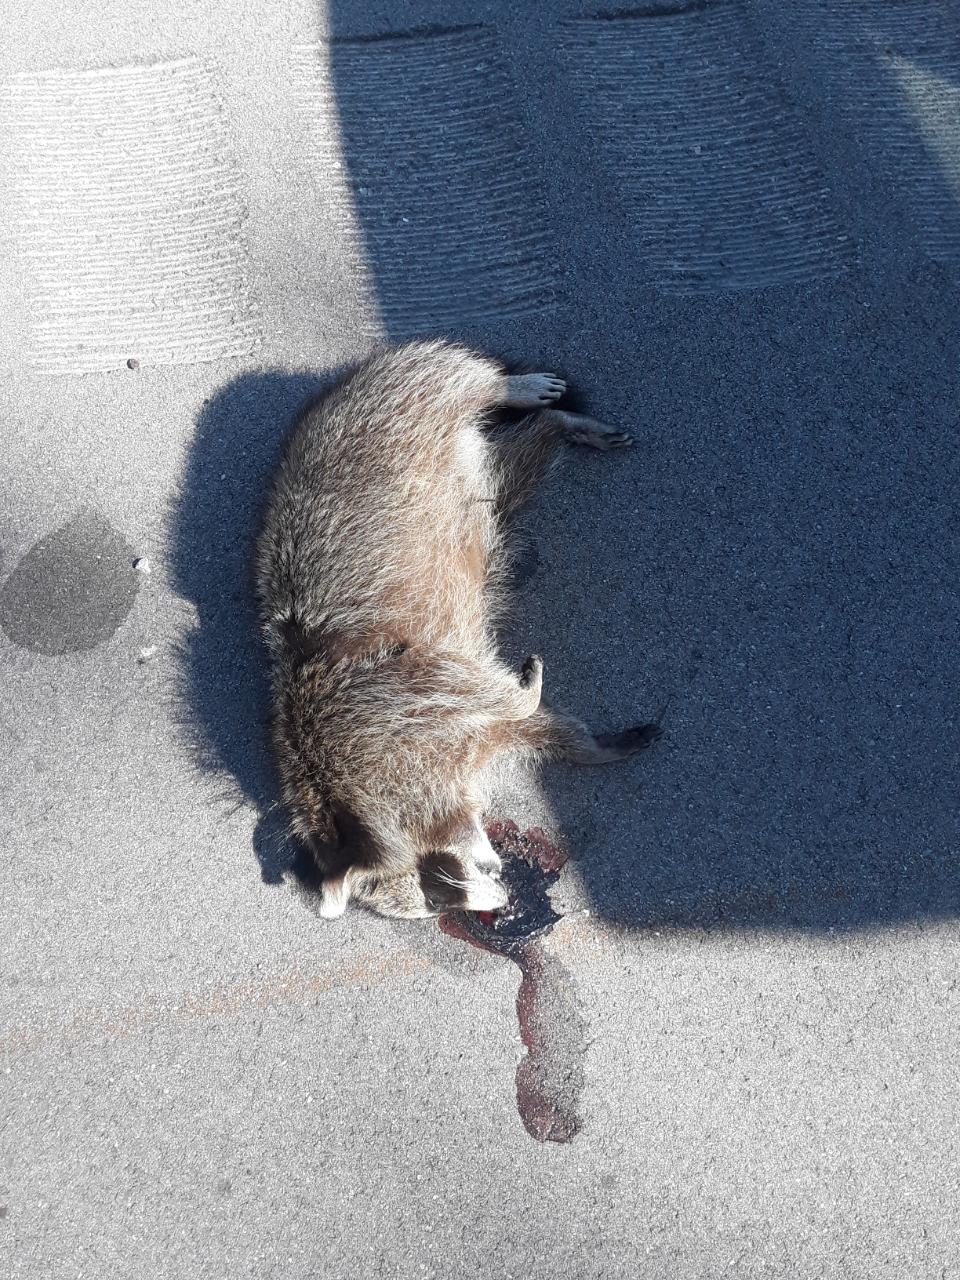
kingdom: Animalia
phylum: Chordata
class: Mammalia
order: Carnivora
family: Procyonidae
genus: Procyon
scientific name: Procyon lotor
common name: Raccoon
